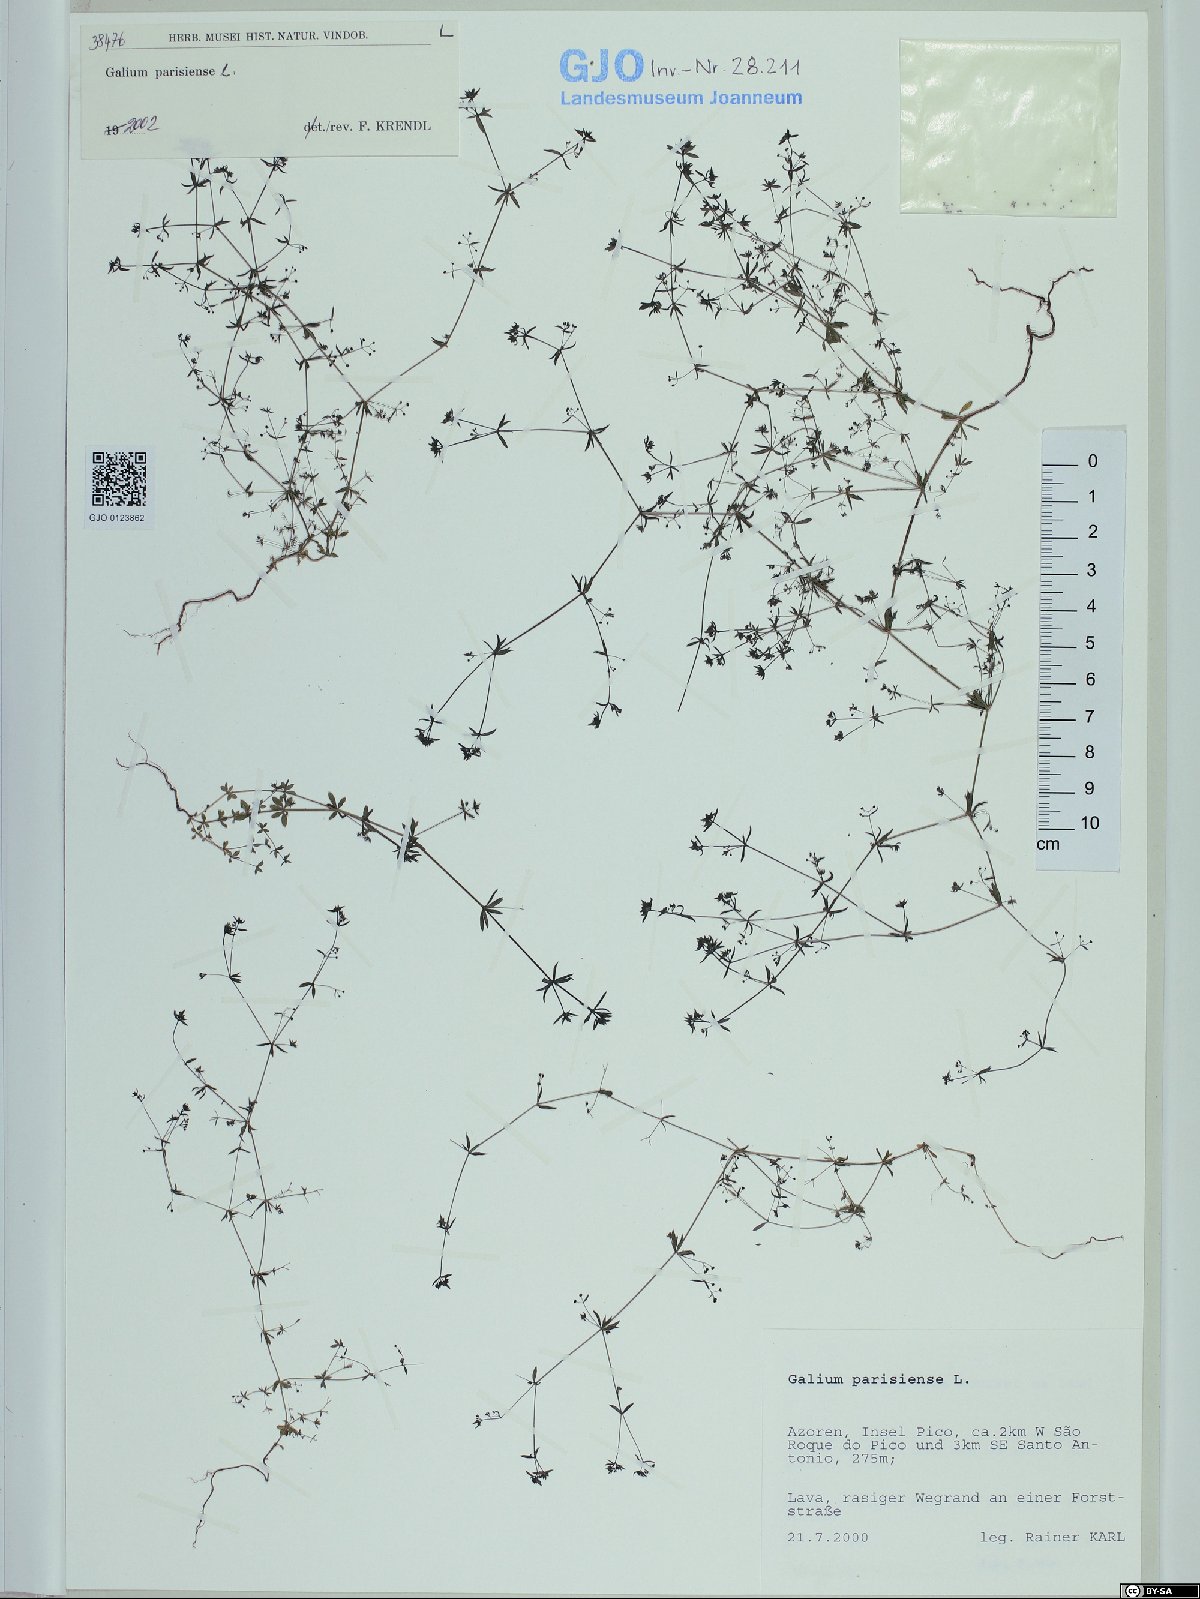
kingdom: Plantae
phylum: Tracheophyta
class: Magnoliopsida
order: Gentianales
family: Rubiaceae
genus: Galium
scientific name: Galium parisiense
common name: Wall bedstraw
